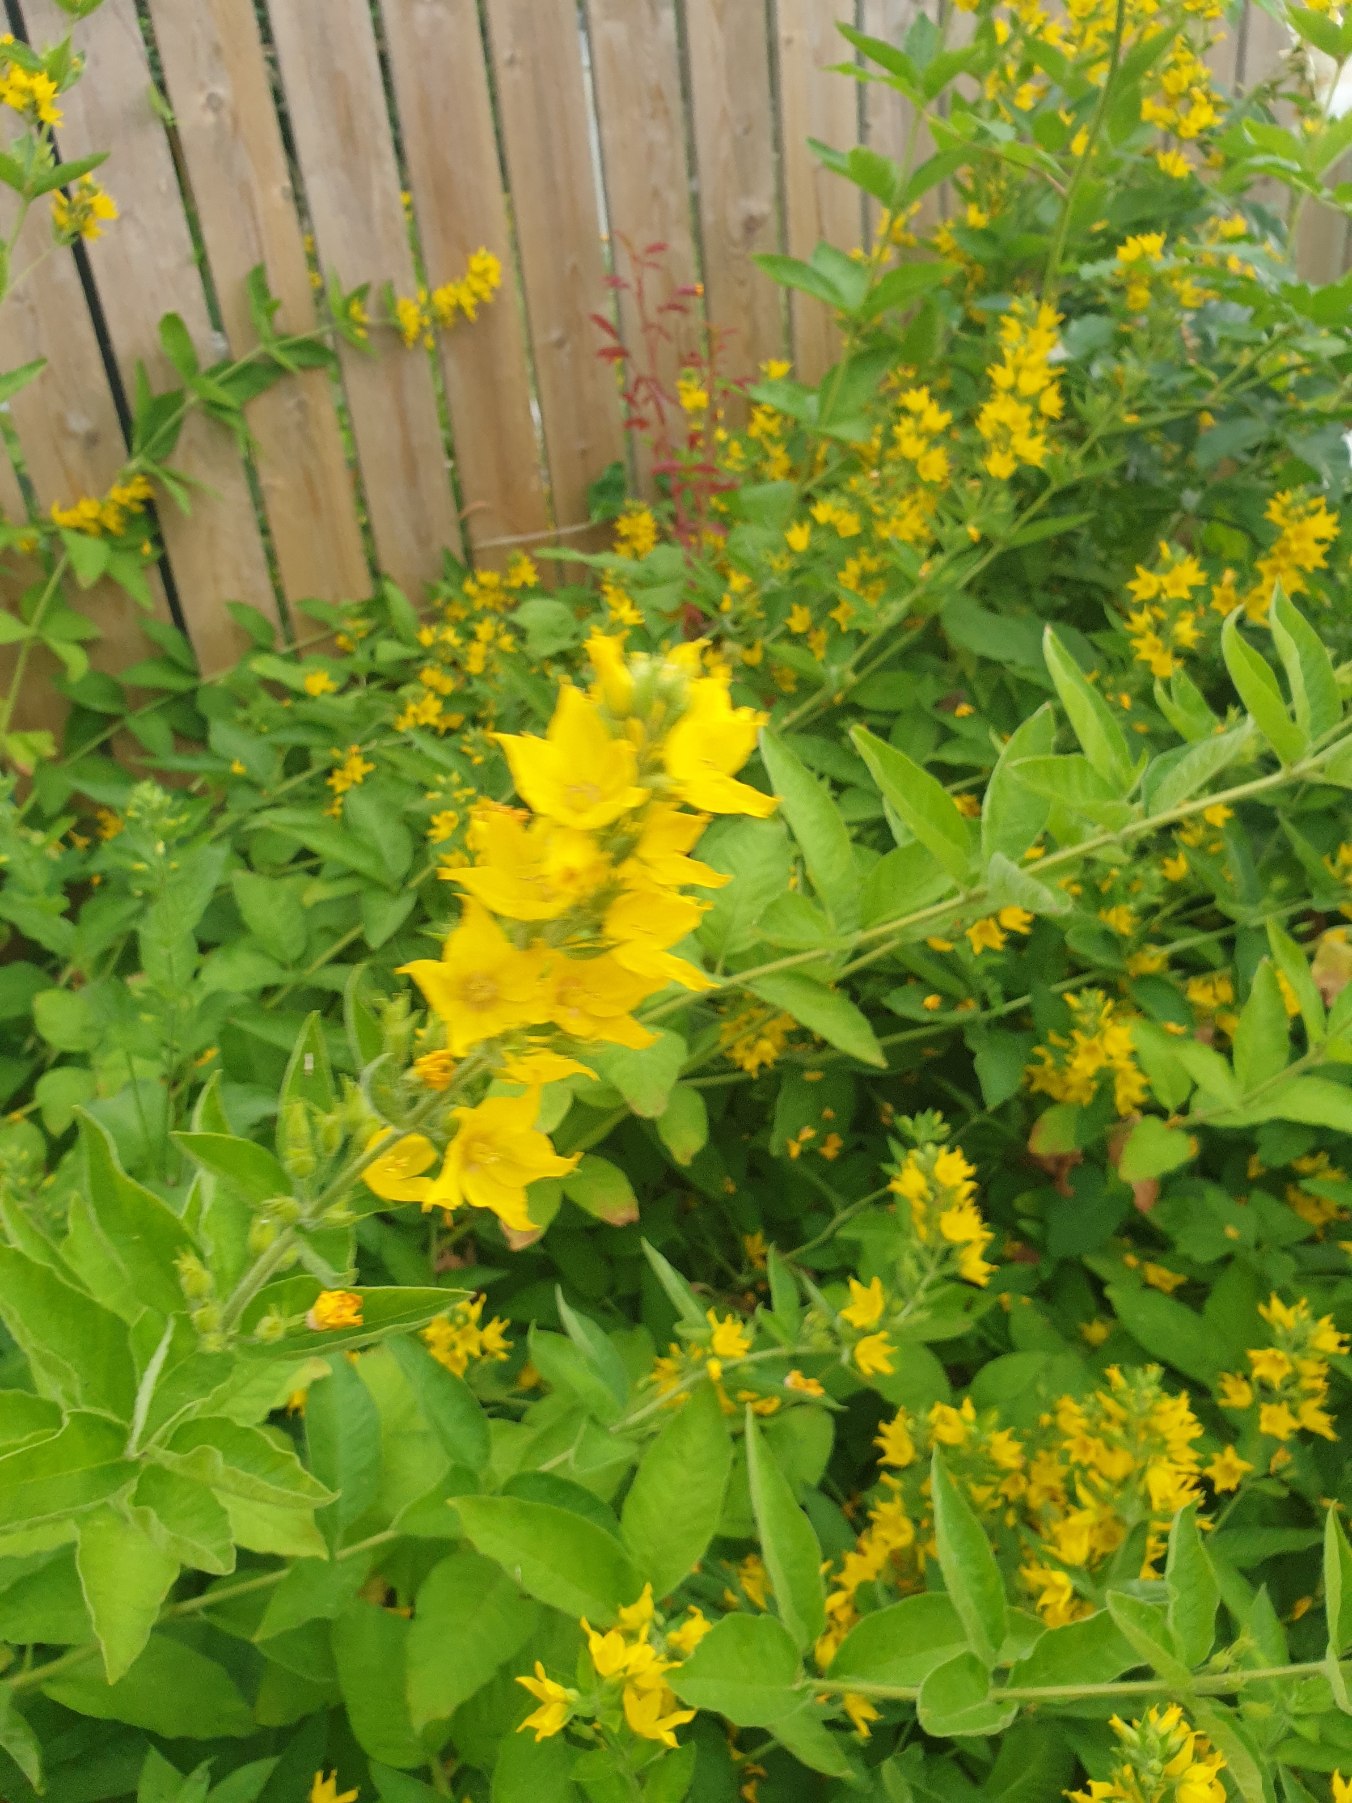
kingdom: Plantae
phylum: Tracheophyta
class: Magnoliopsida
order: Ericales
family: Primulaceae
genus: Lysimachia
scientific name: Lysimachia punctata
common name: Prikbladet fredløs
